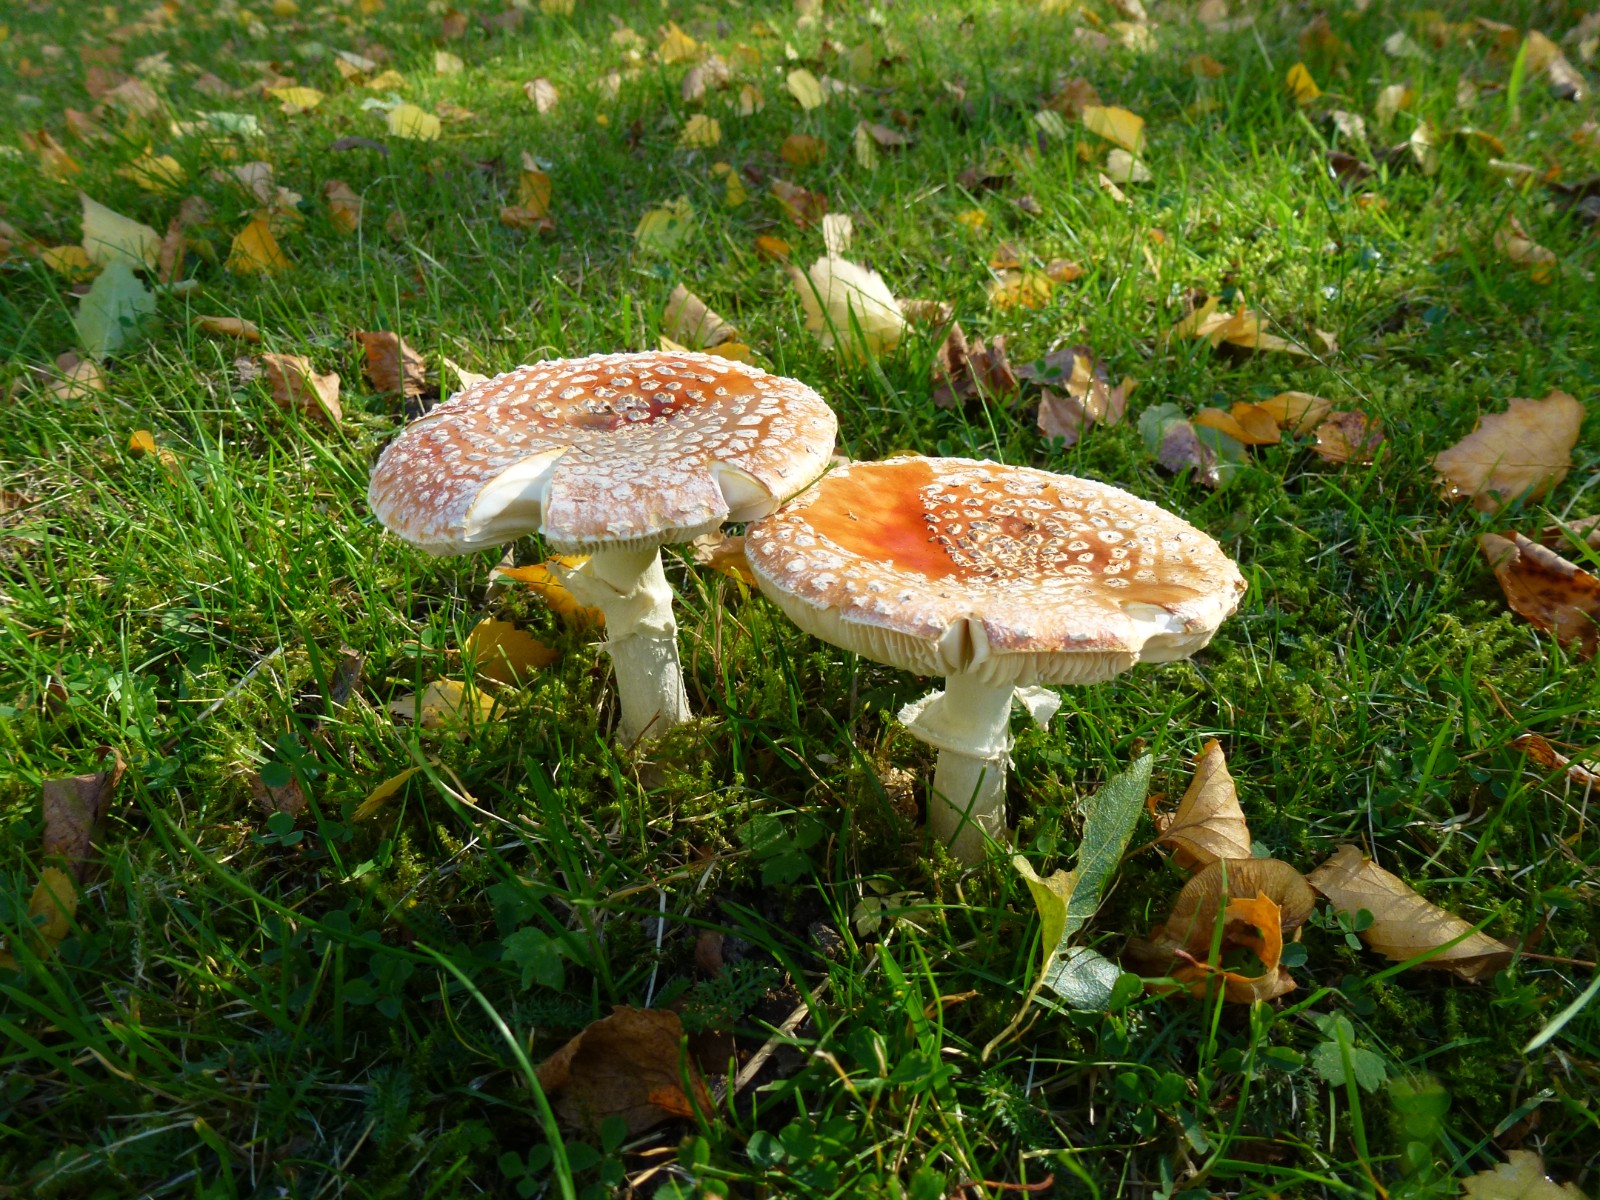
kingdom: Fungi
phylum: Basidiomycota
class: Agaricomycetes
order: Agaricales
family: Amanitaceae
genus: Amanita
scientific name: Amanita muscaria
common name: rød fluesvamp
